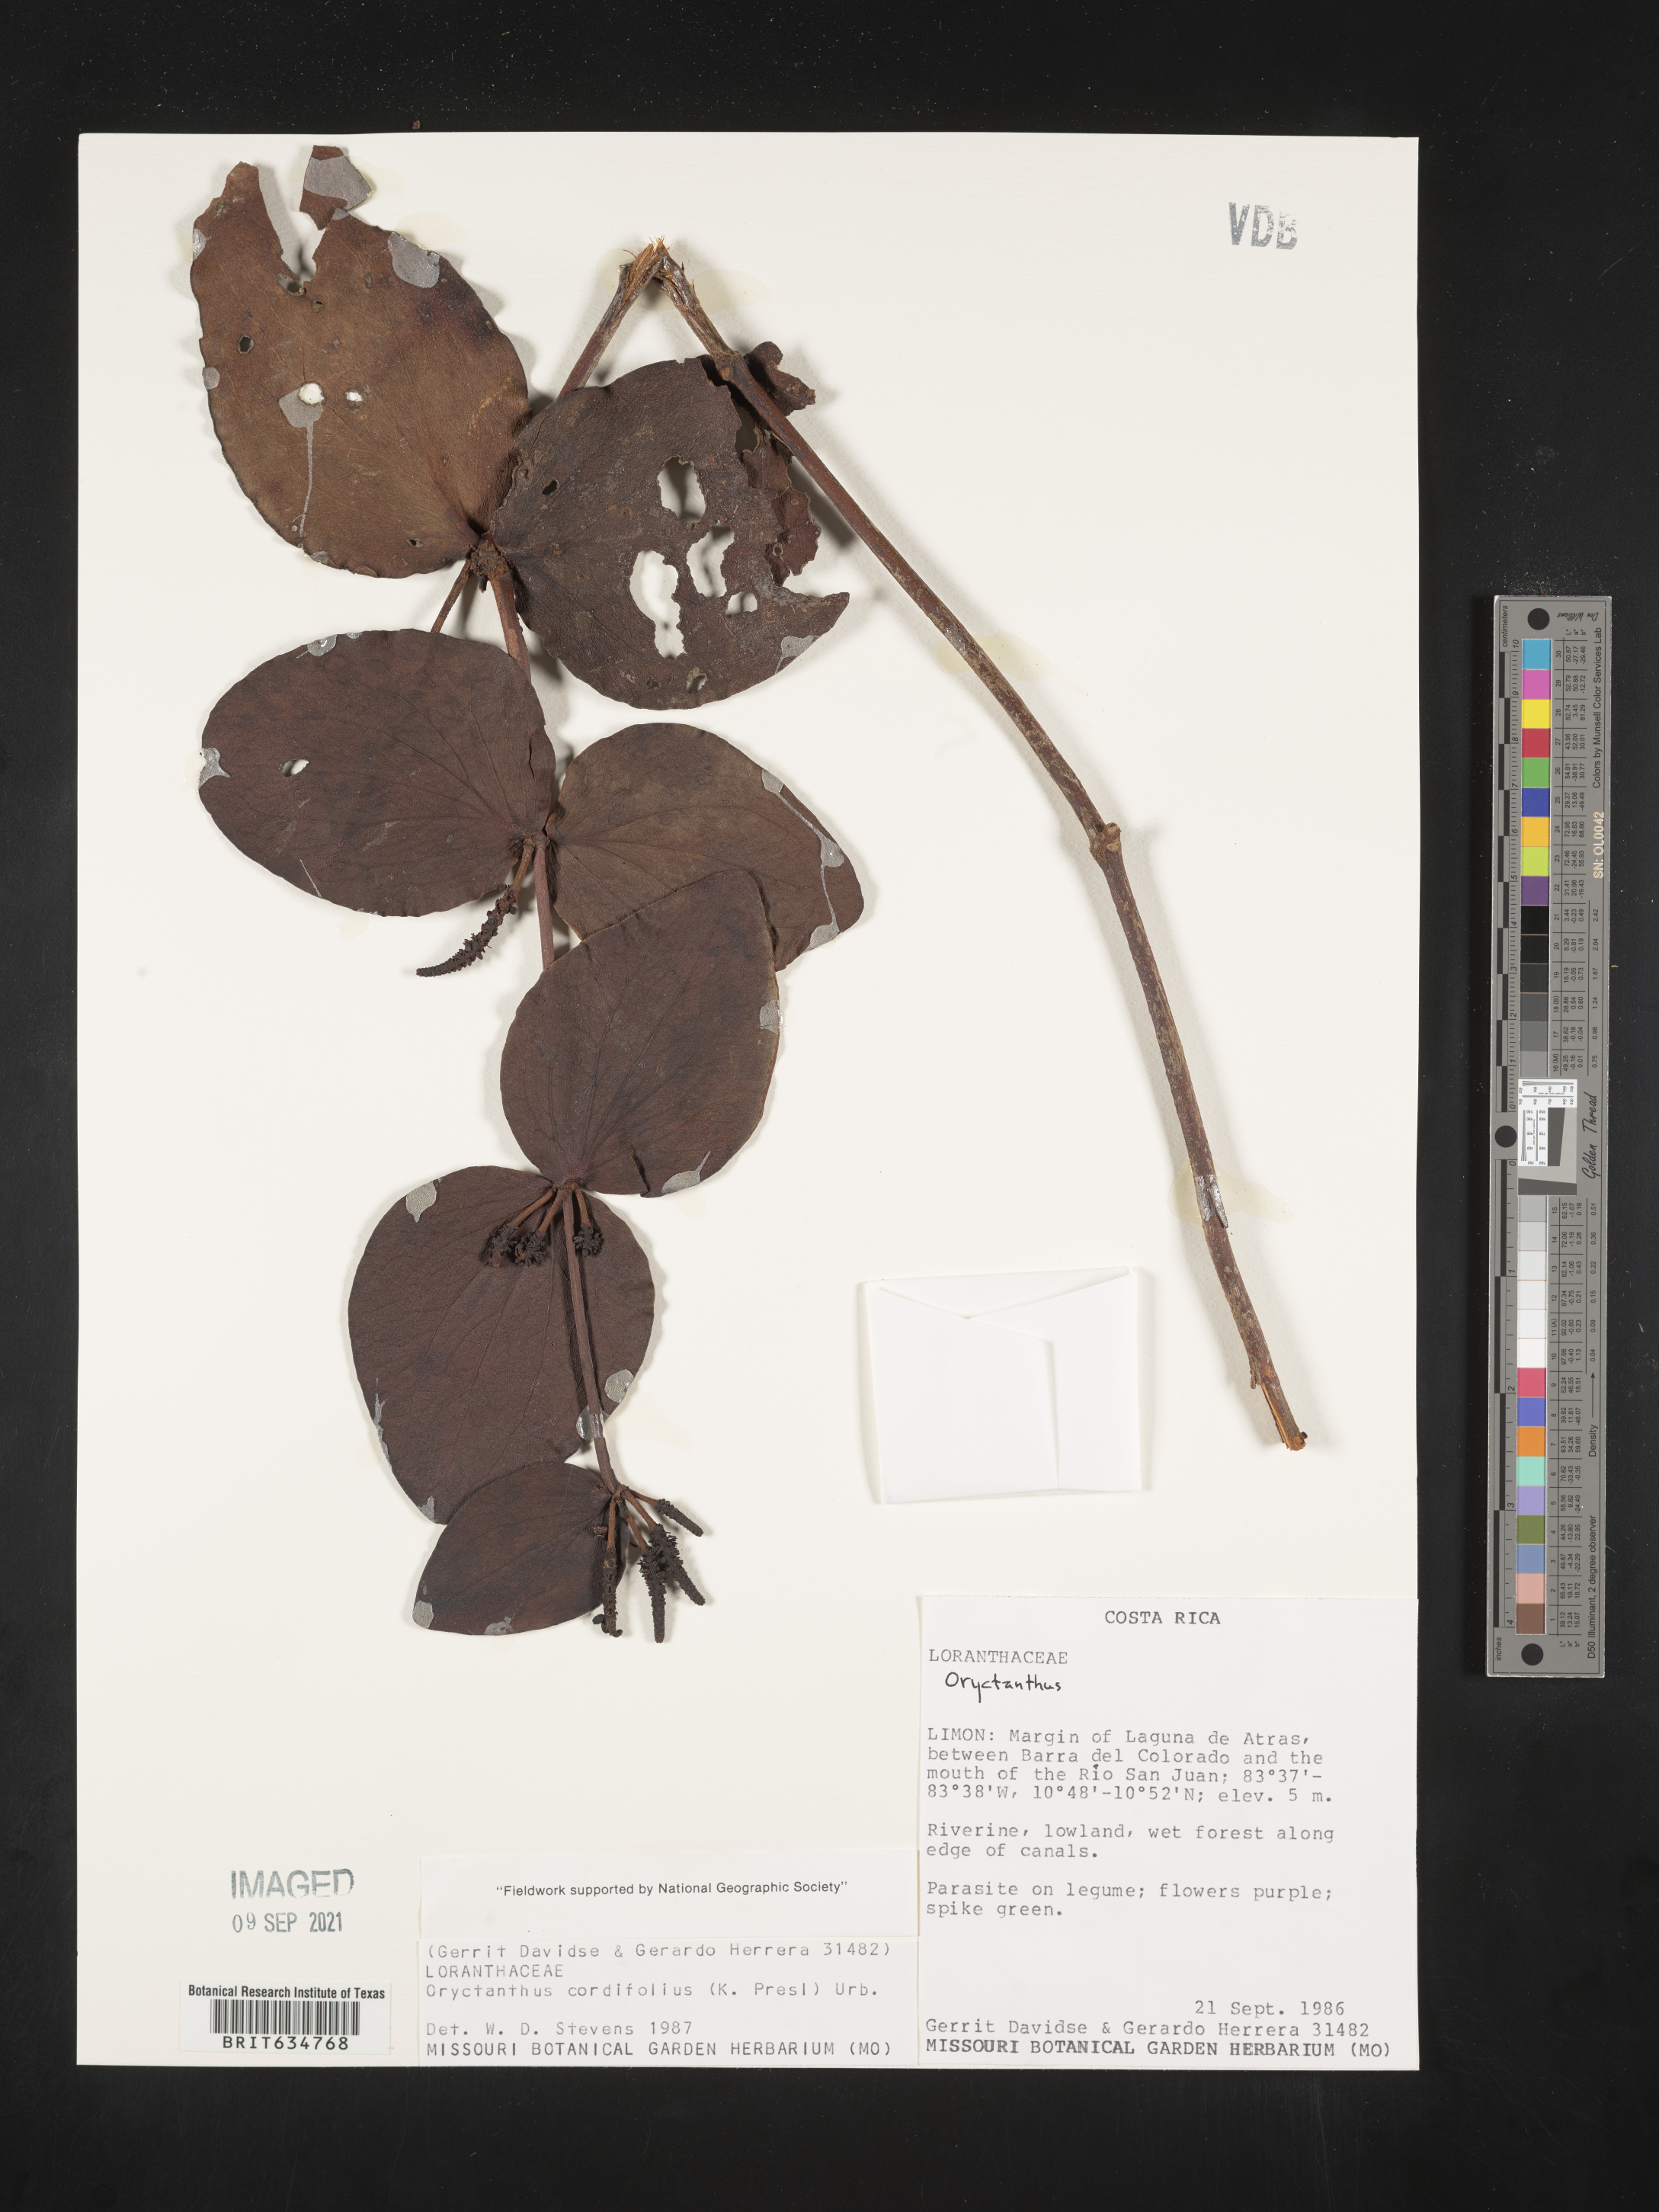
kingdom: Plantae
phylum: Tracheophyta
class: Magnoliopsida
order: Santalales
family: Loranthaceae
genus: Oryctanthus
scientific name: Oryctanthus
